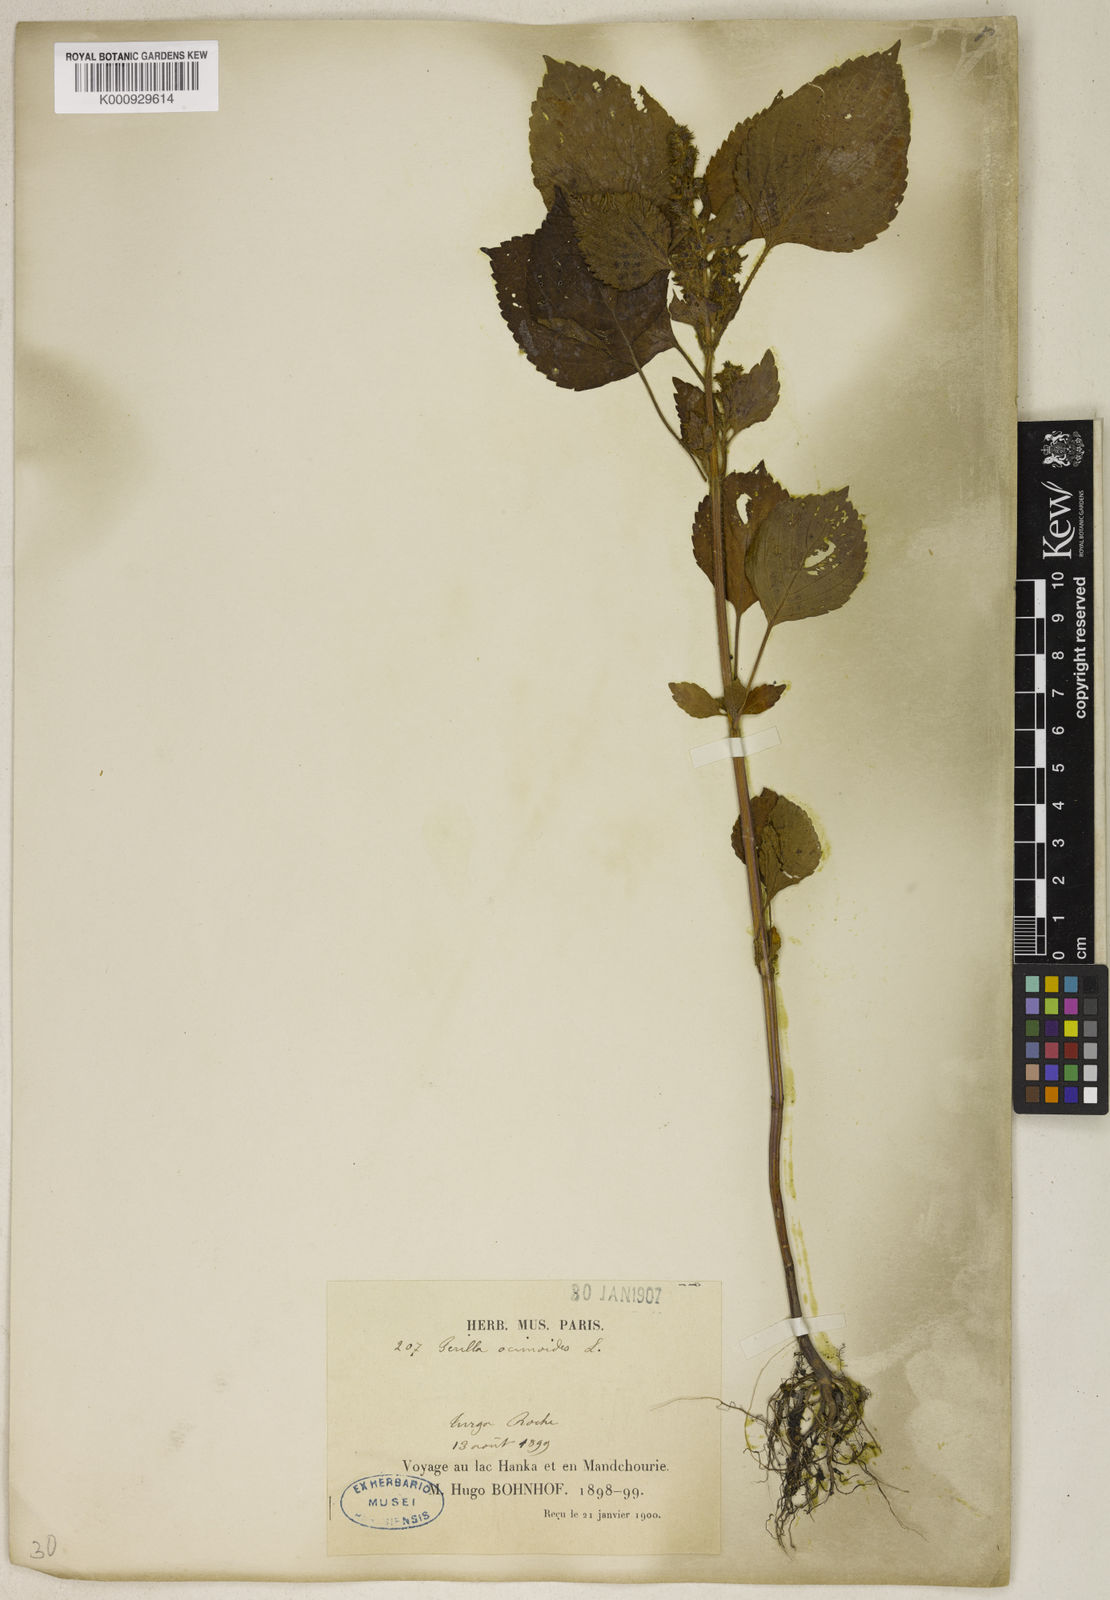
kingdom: Plantae
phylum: Tracheophyta
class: Magnoliopsida
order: Lamiales
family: Lamiaceae
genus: Perilla
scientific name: Perilla frutescens
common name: Perilla
